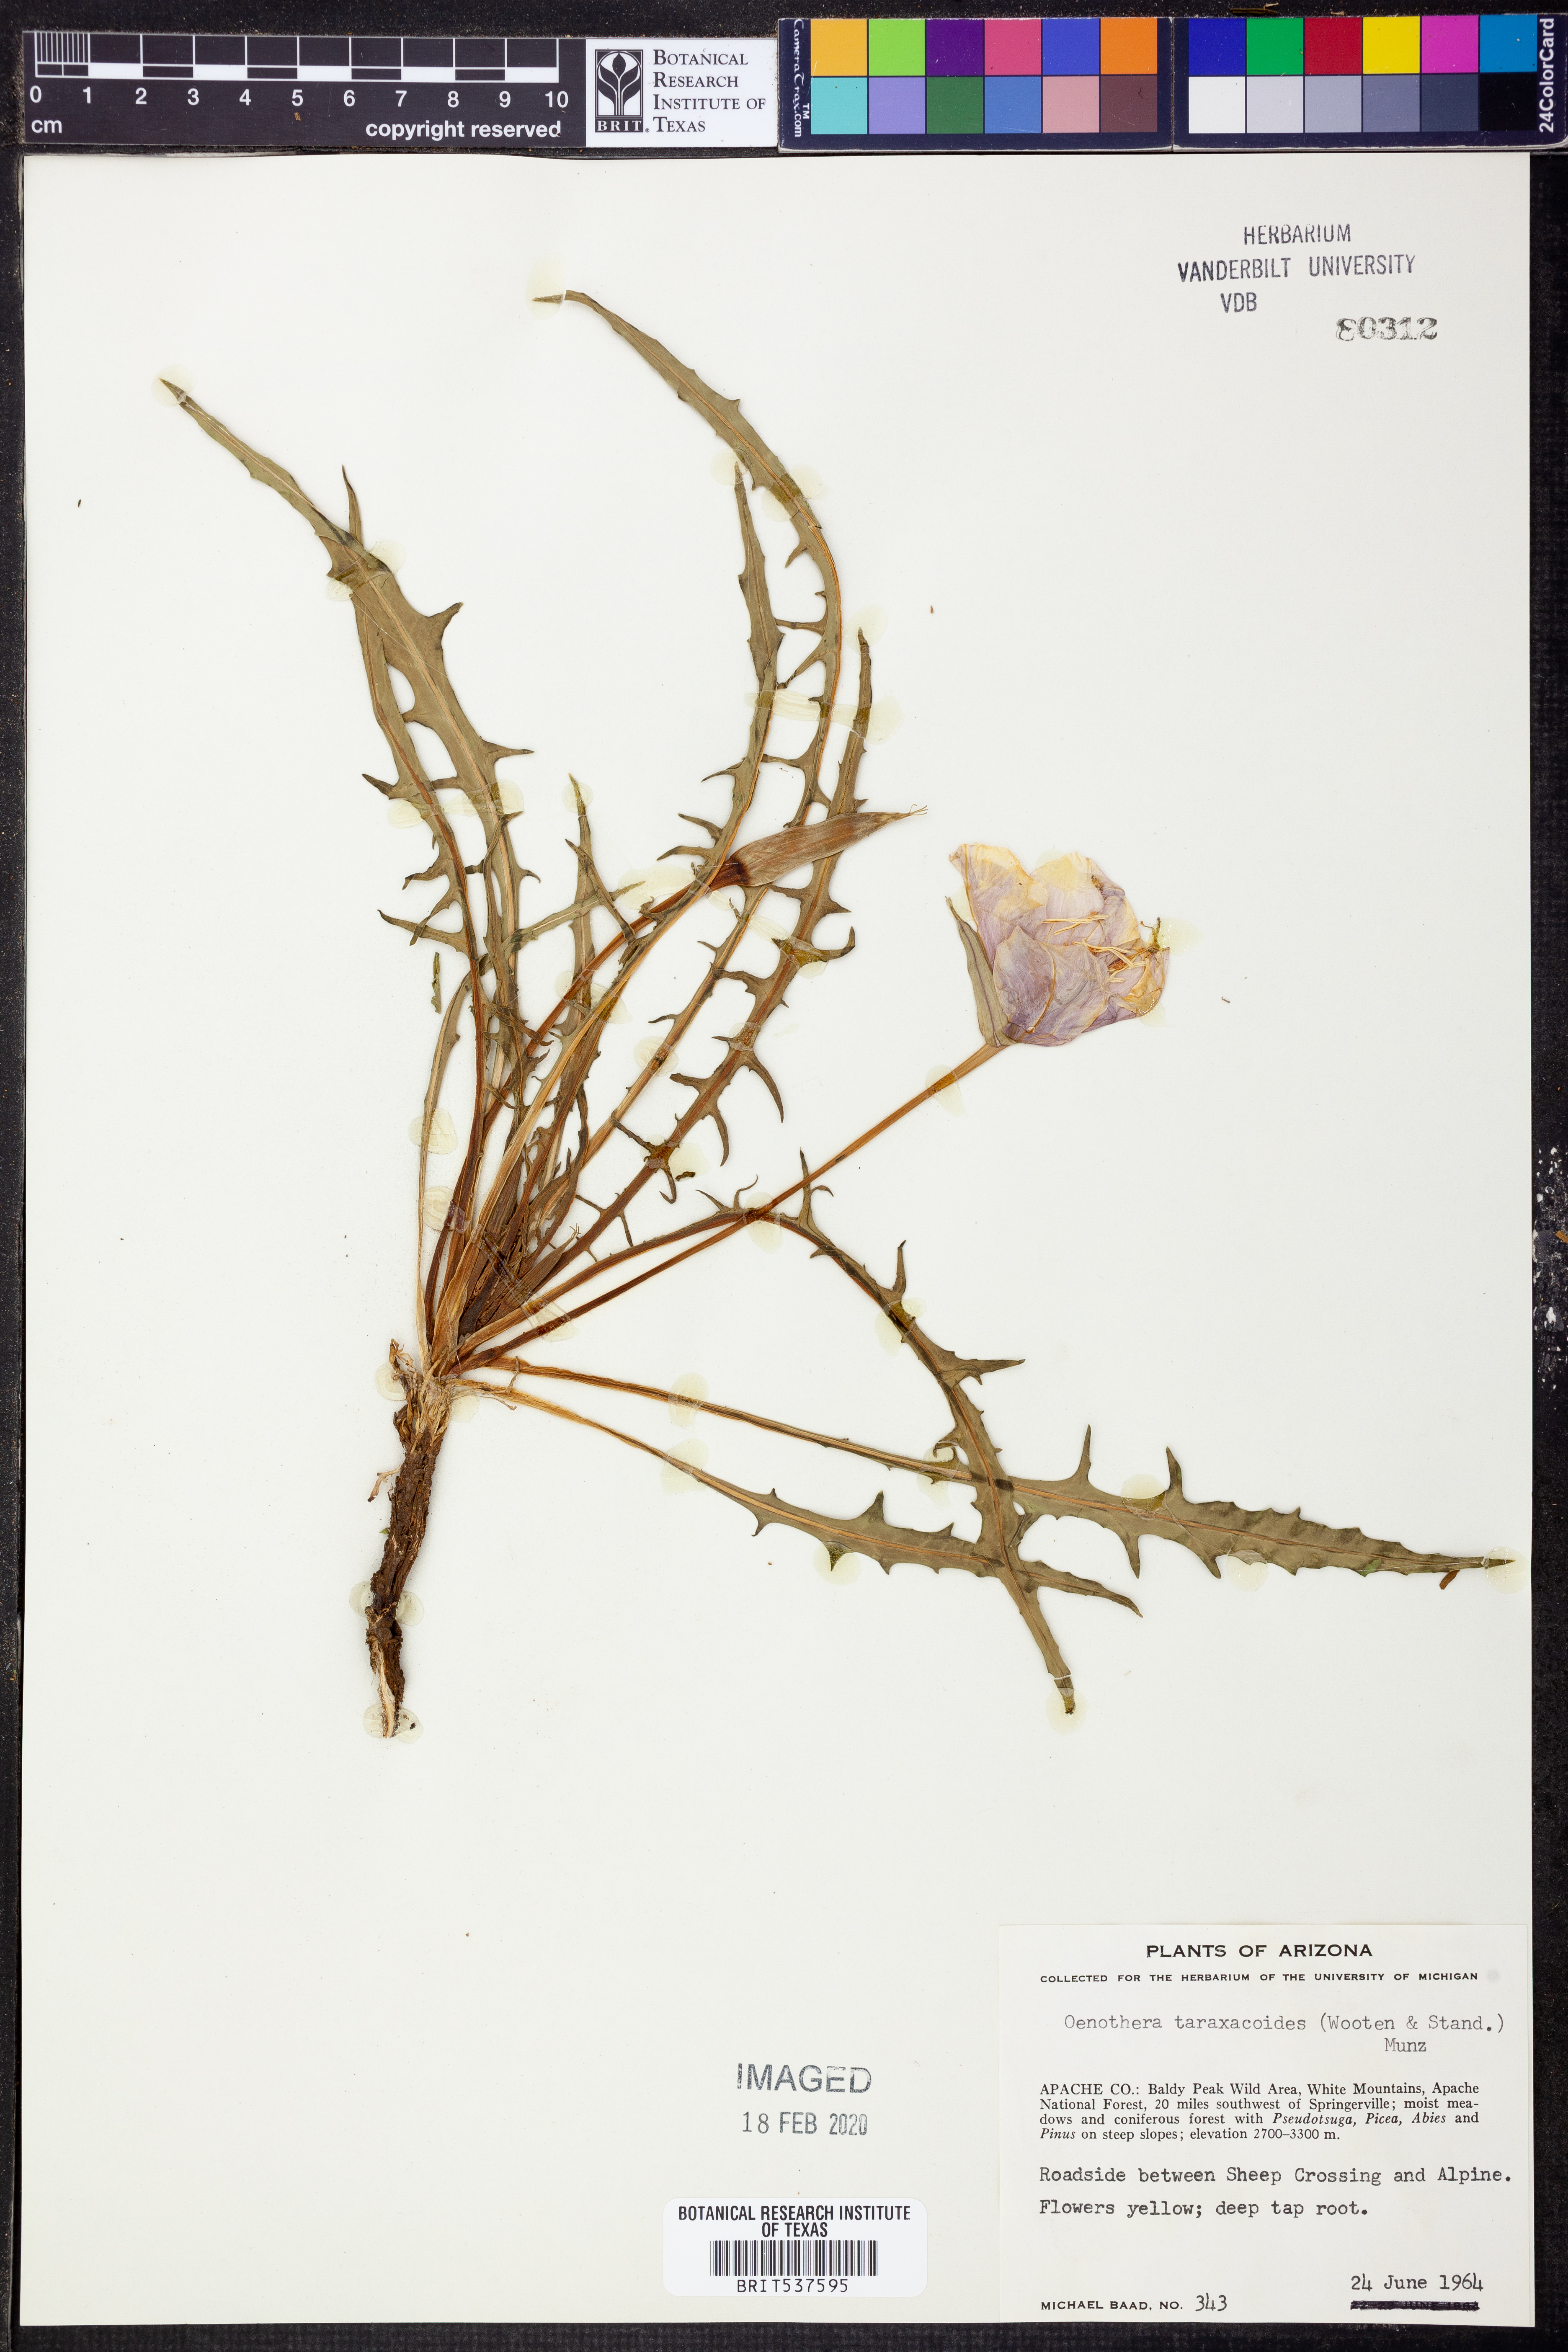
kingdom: Plantae
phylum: Tracheophyta
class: Magnoliopsida
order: Myrtales
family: Onagraceae
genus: Oenothera
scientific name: Oenothera flava
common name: Long-tubed evening-primrose
